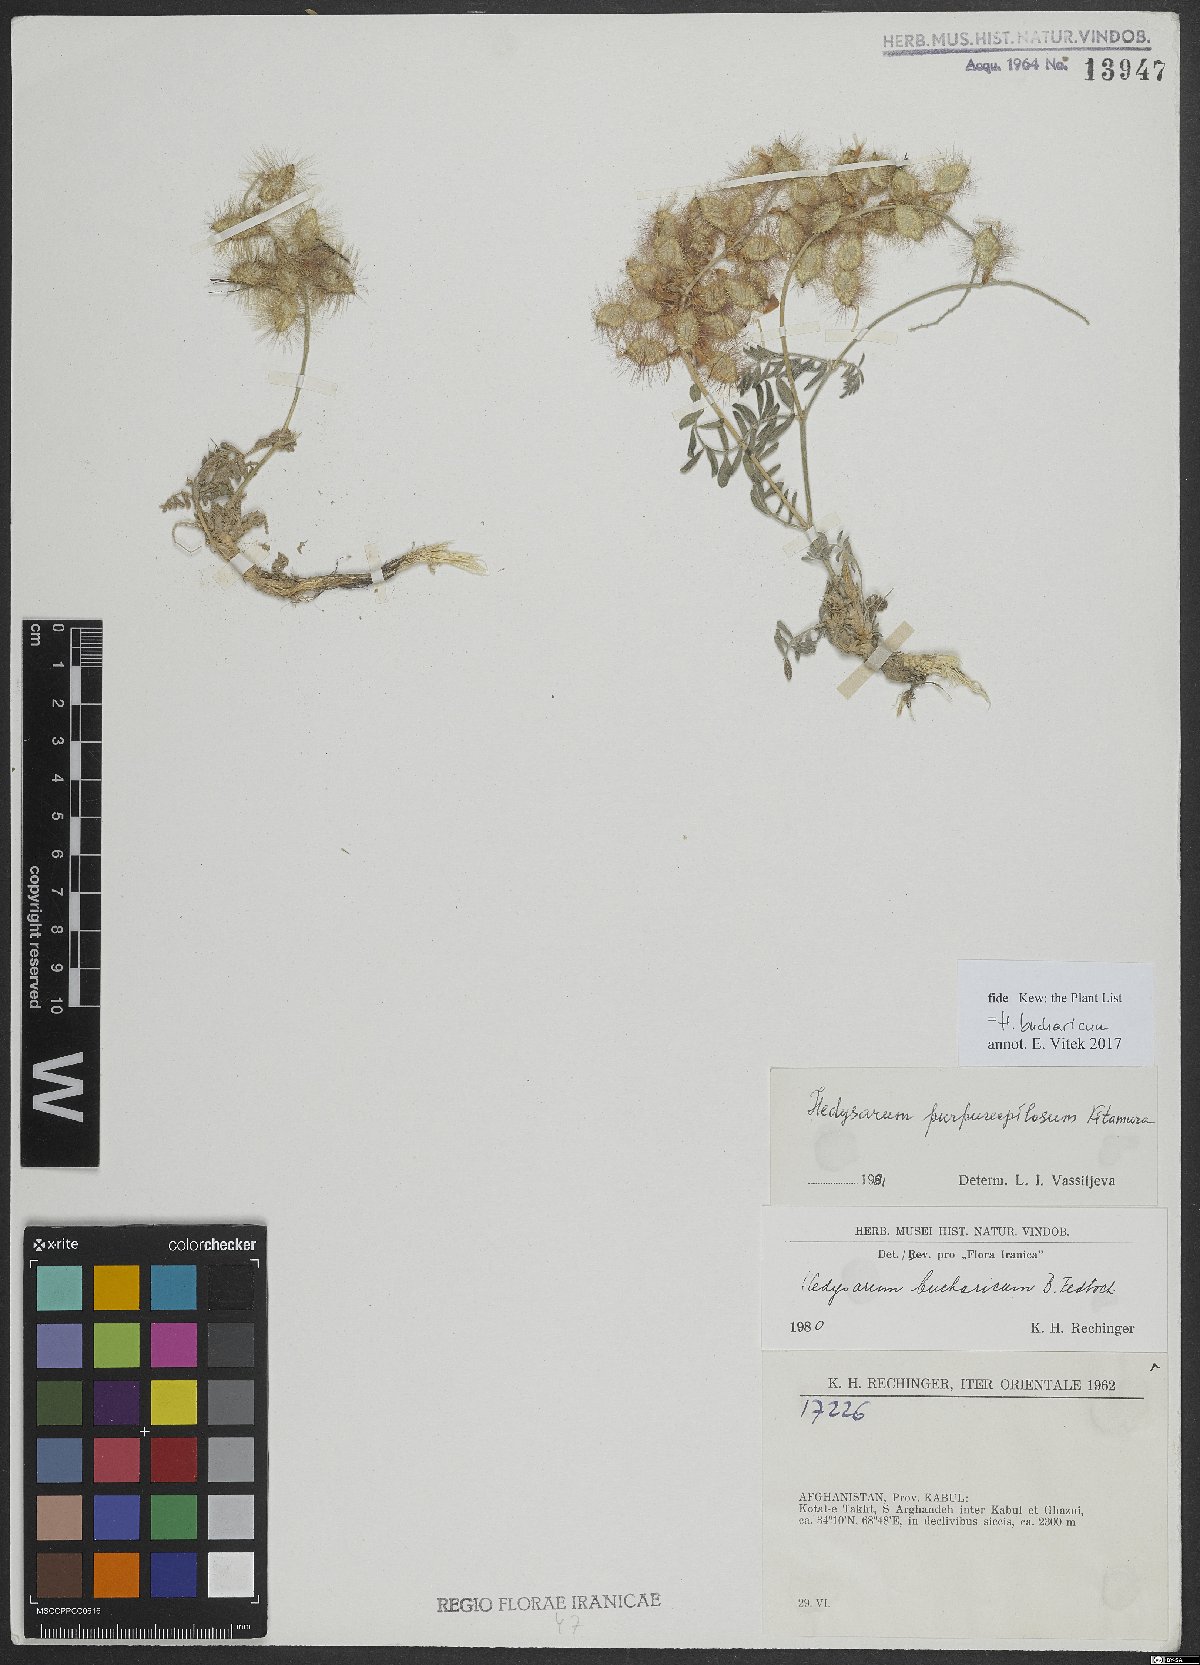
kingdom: Plantae
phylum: Tracheophyta
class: Magnoliopsida
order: Fabales
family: Fabaceae
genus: Hedysarum
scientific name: Hedysarum bucharicum
